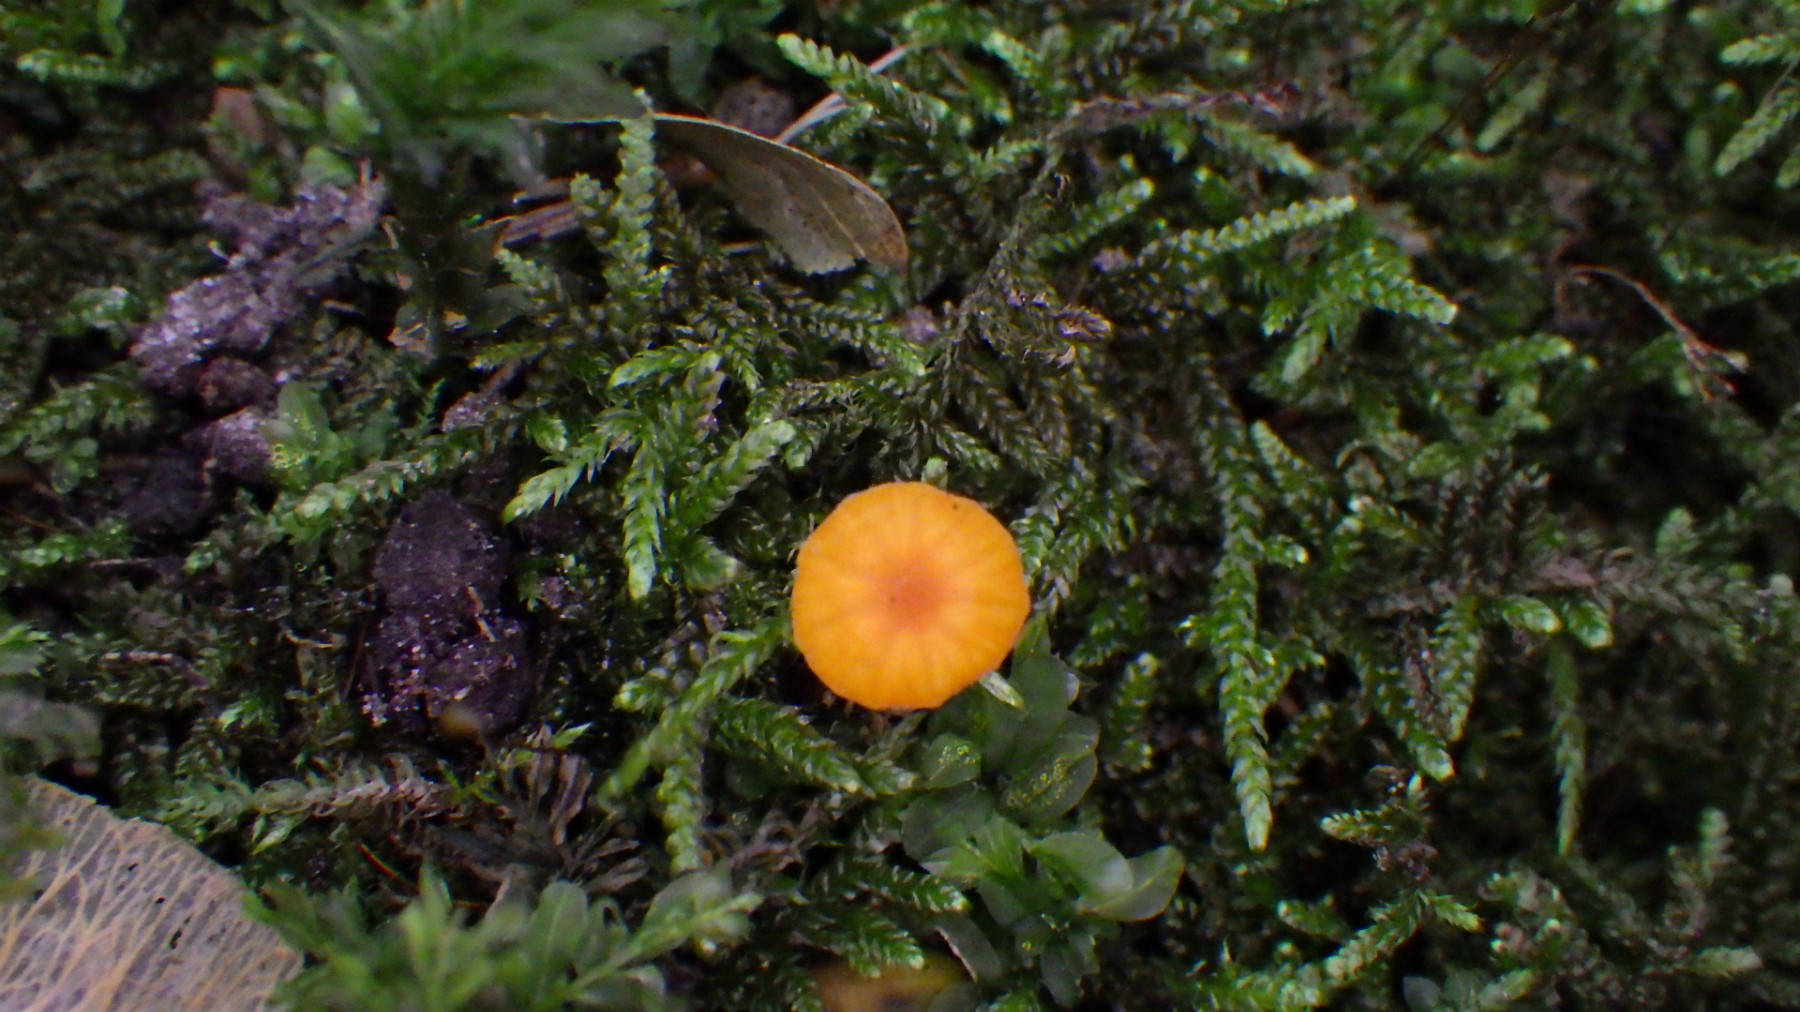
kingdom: Fungi
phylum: Basidiomycota
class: Agaricomycetes
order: Hymenochaetales
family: Rickenellaceae
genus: Rickenella
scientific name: Rickenella fibula
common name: orange mosnavlehat
